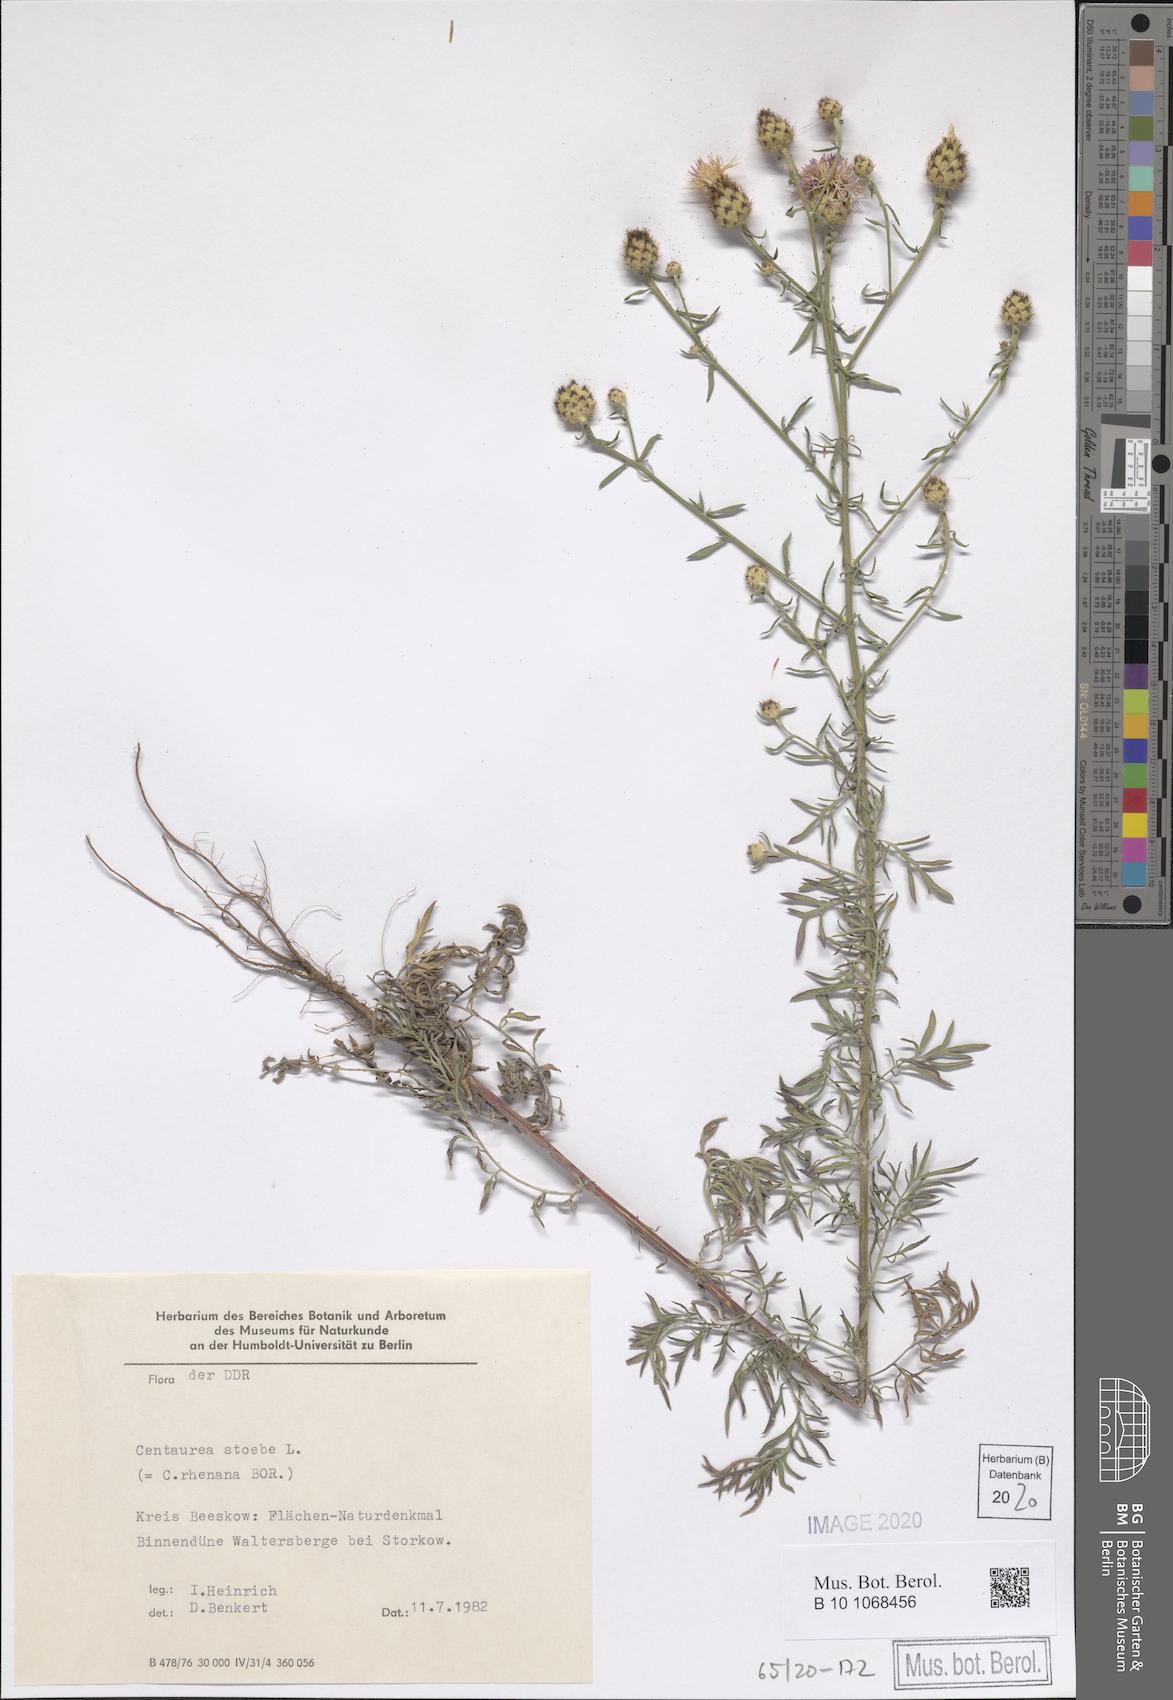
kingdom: Plantae
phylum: Tracheophyta
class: Magnoliopsida
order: Asterales
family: Asteraceae
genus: Centaurea
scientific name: Centaurea stoebe
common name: Spotted knapweed
